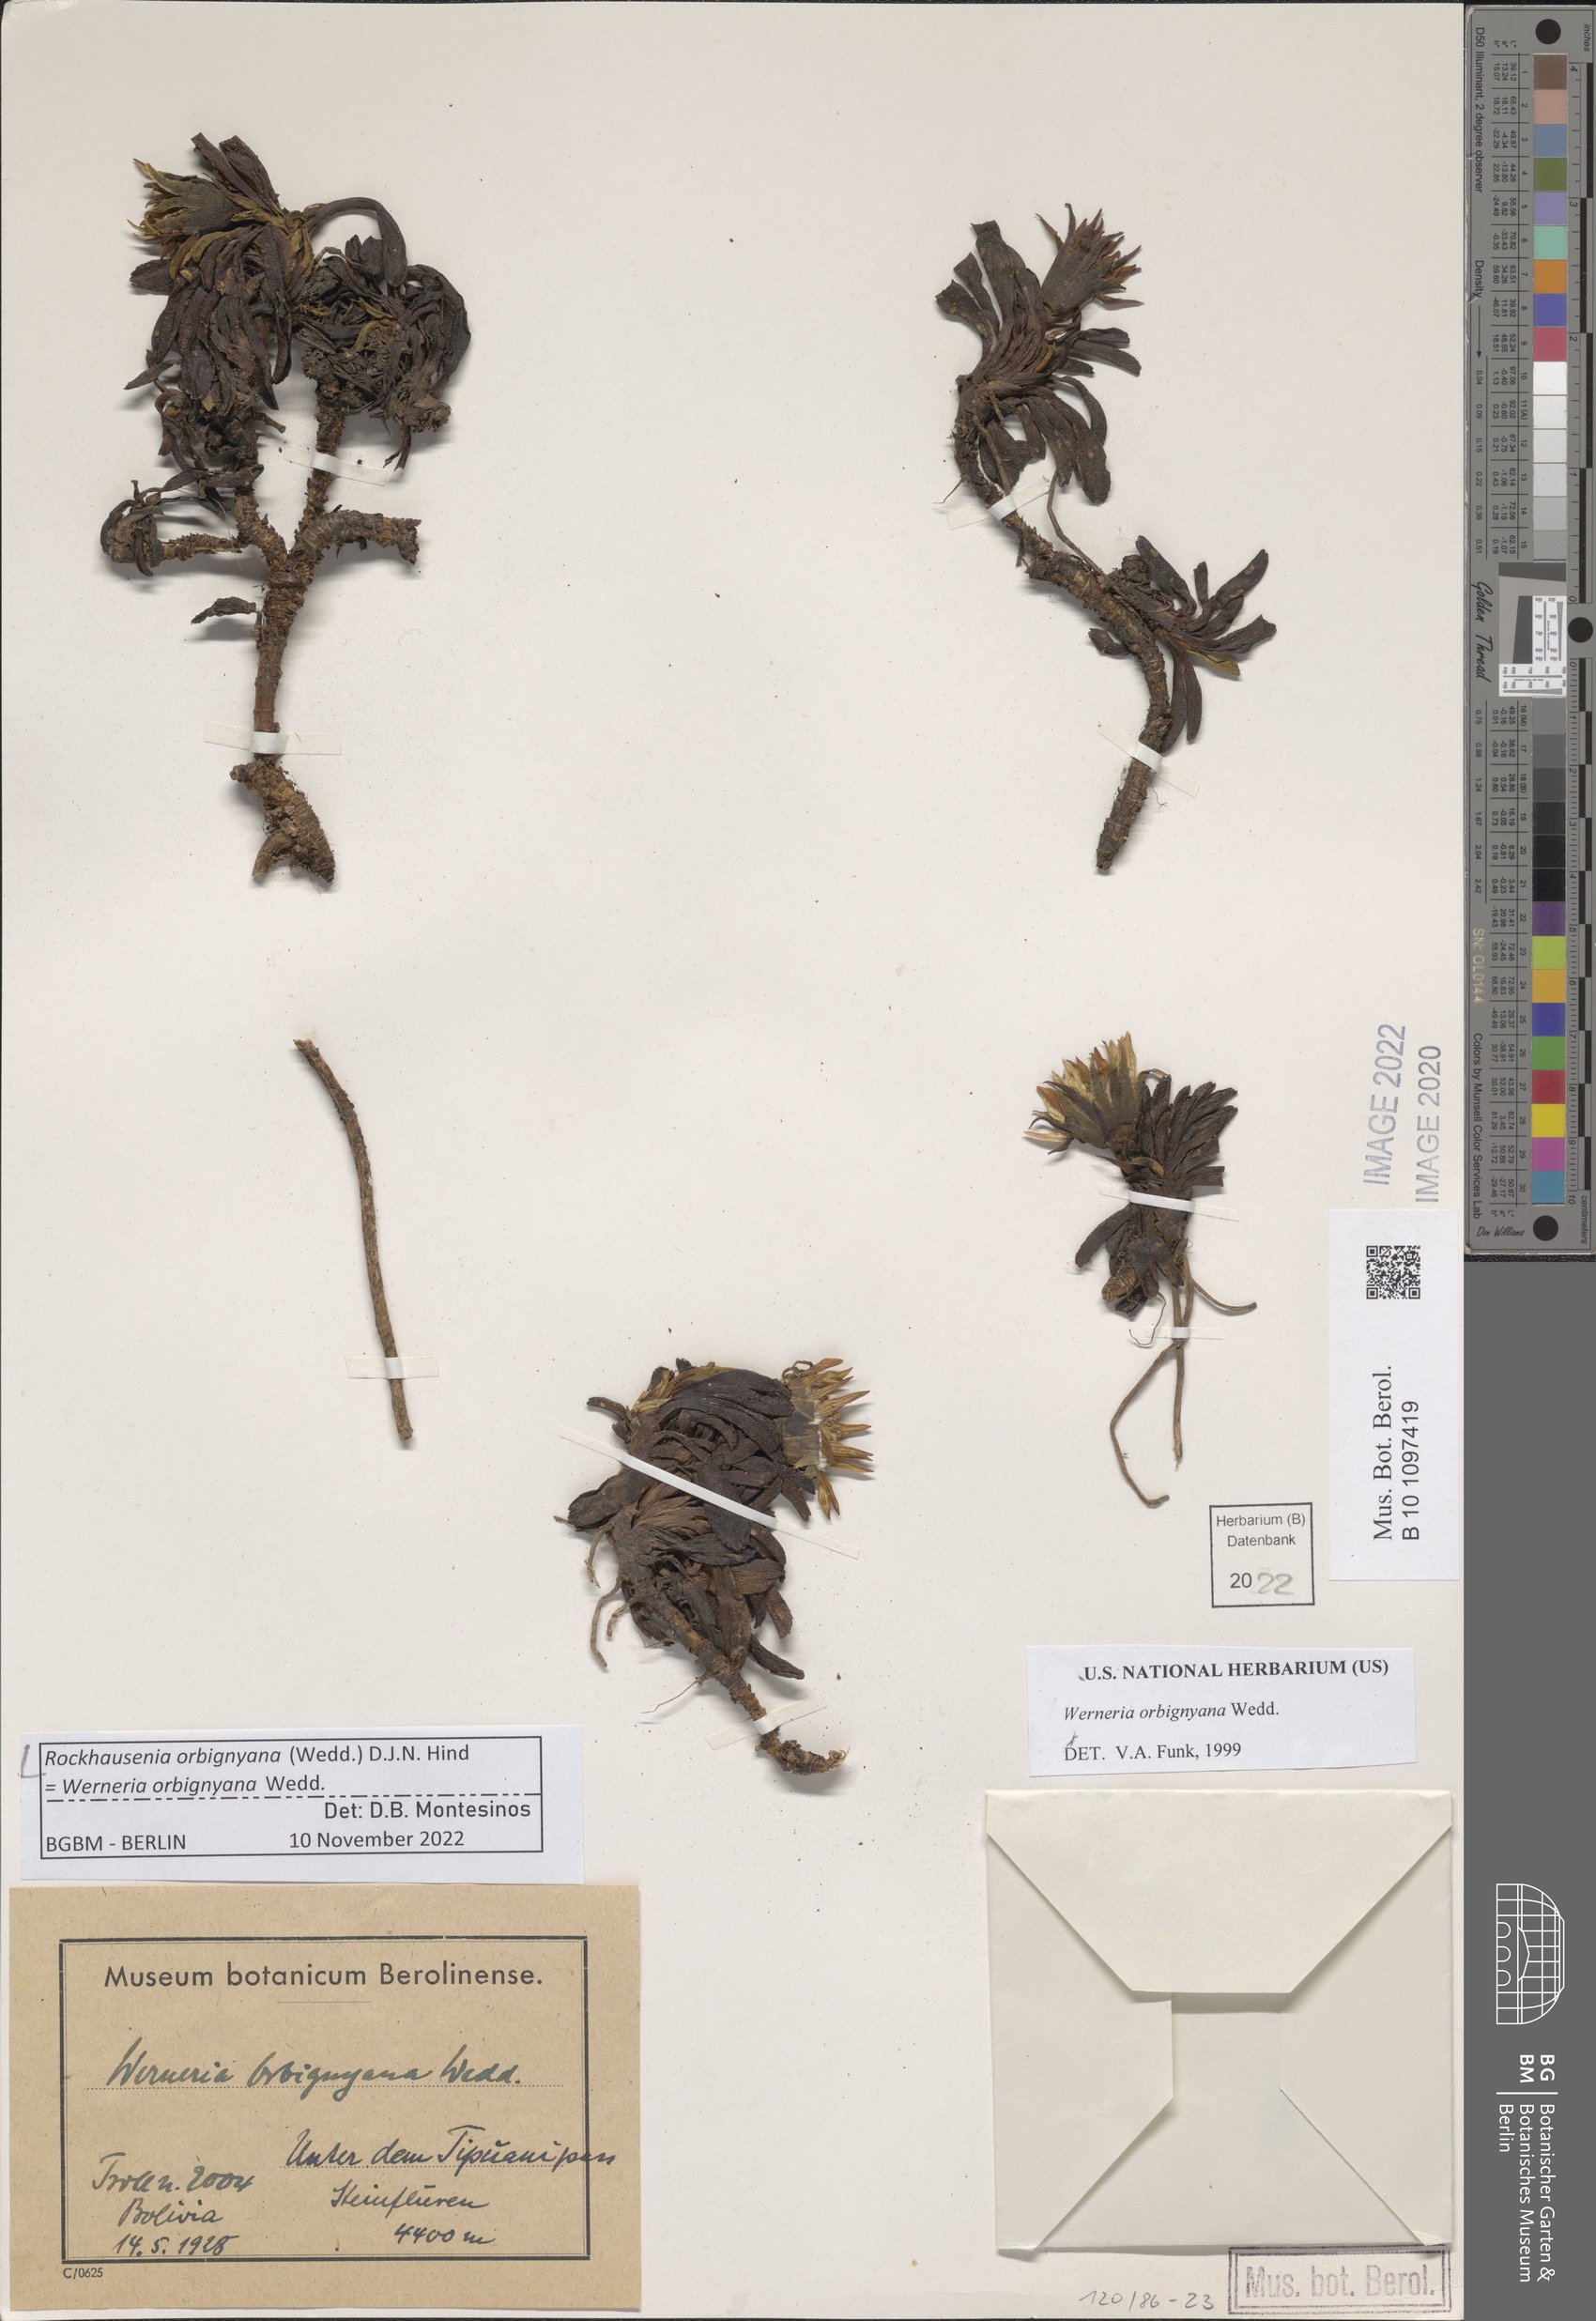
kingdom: Plantae
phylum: Tracheophyta
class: Magnoliopsida
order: Asterales
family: Asteraceae
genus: Rockhausenia
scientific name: Rockhausenia orbignyana
